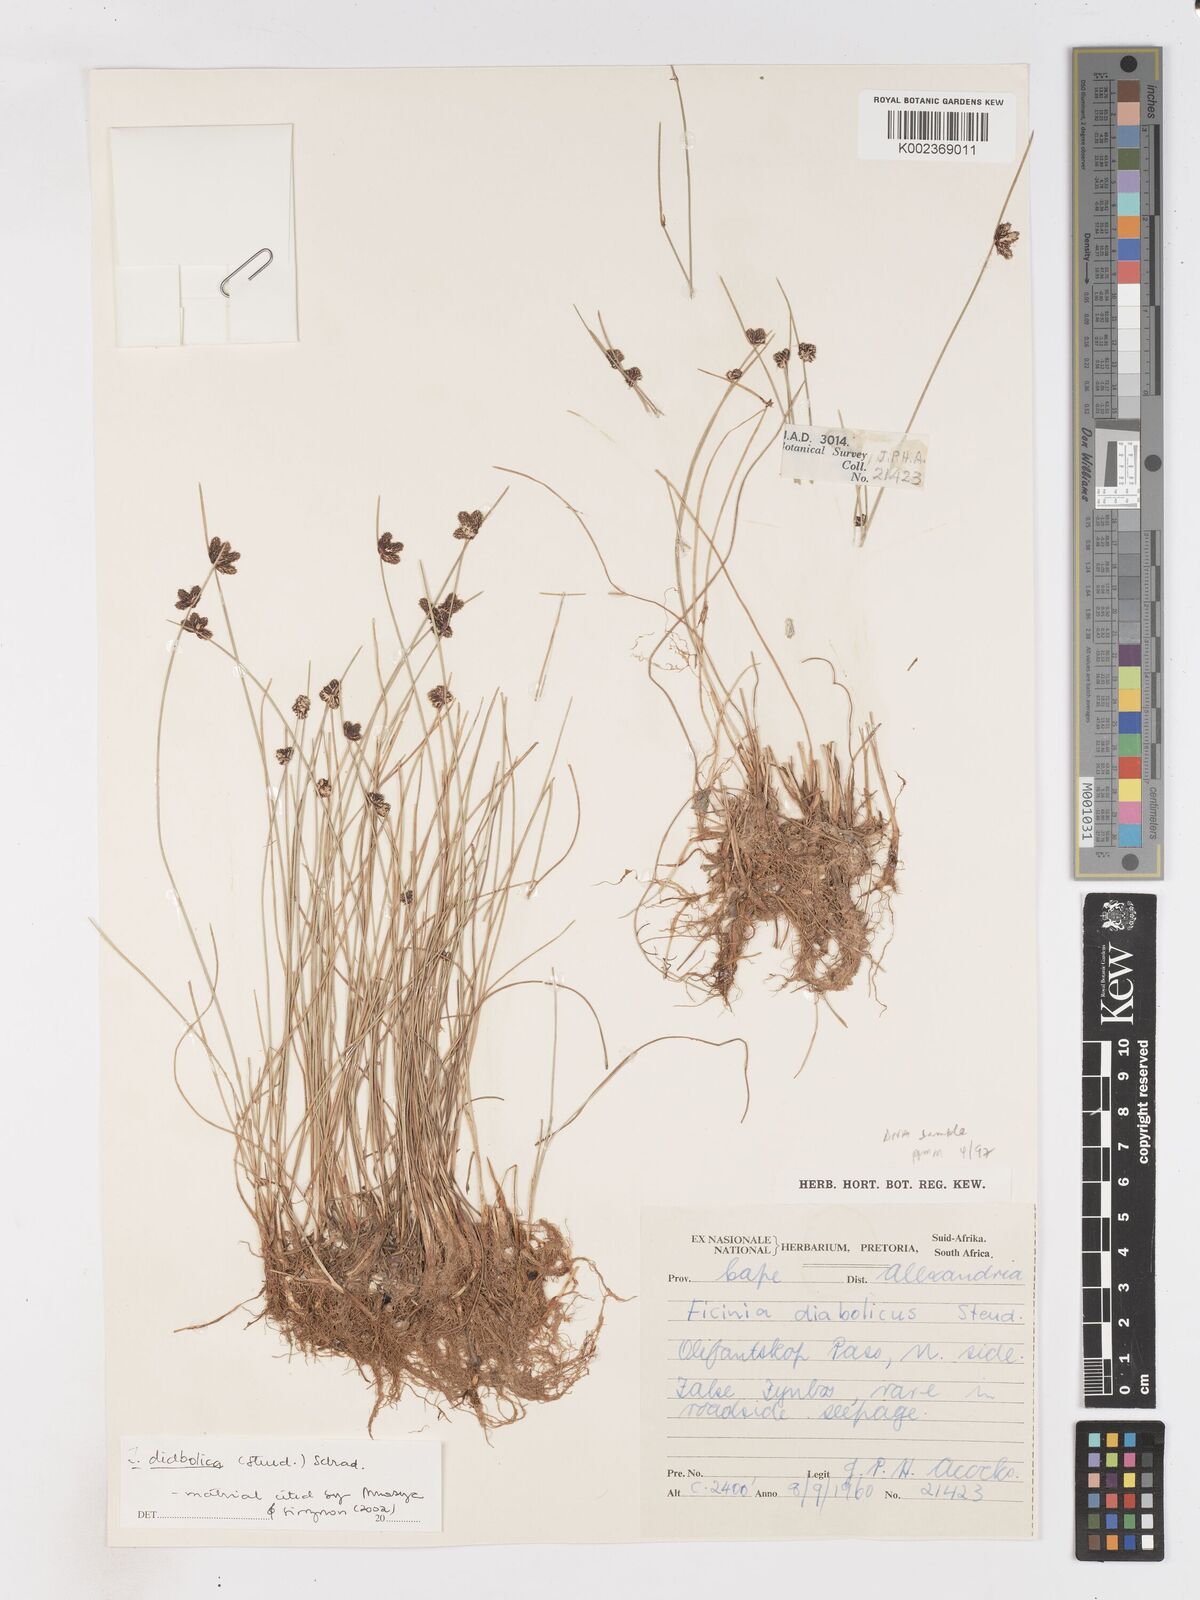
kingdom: Plantae
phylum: Tracheophyta
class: Liliopsida
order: Poales
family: Cyperaceae
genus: Isolepis
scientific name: Isolepis diabolica
